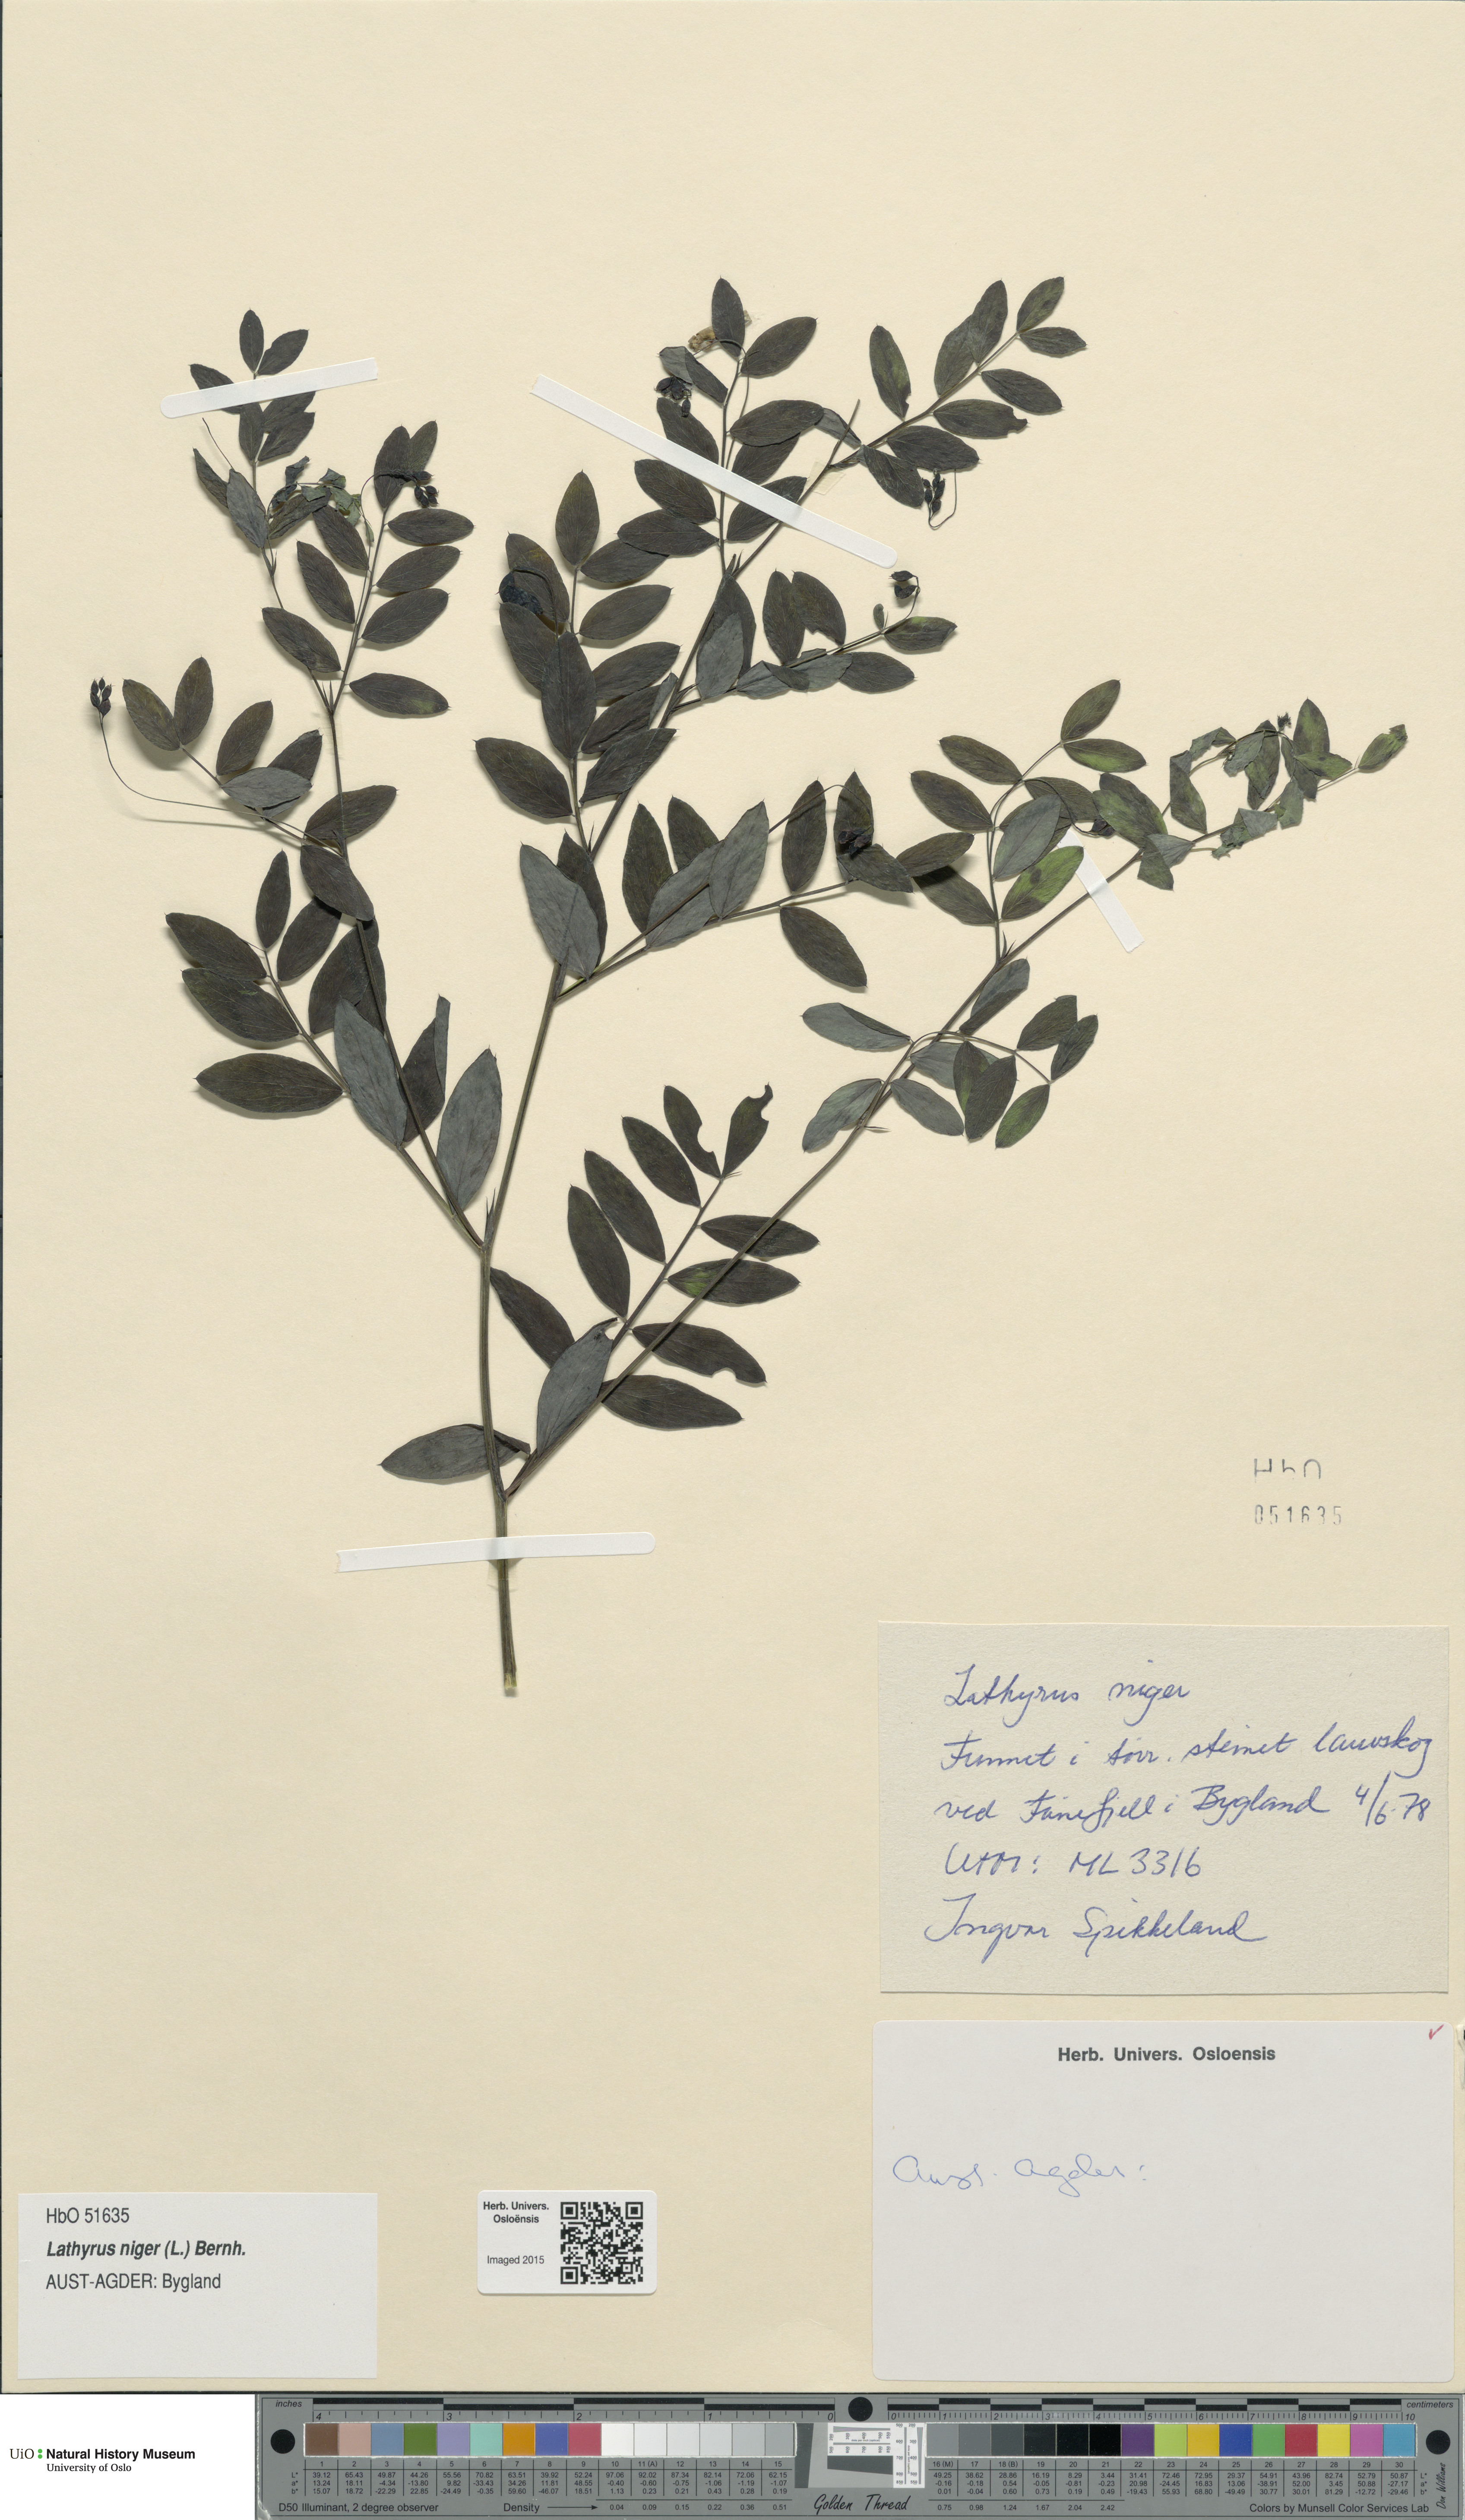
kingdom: Plantae
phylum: Tracheophyta
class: Magnoliopsida
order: Fabales
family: Fabaceae
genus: Lathyrus
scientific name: Lathyrus niger
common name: Black pea
